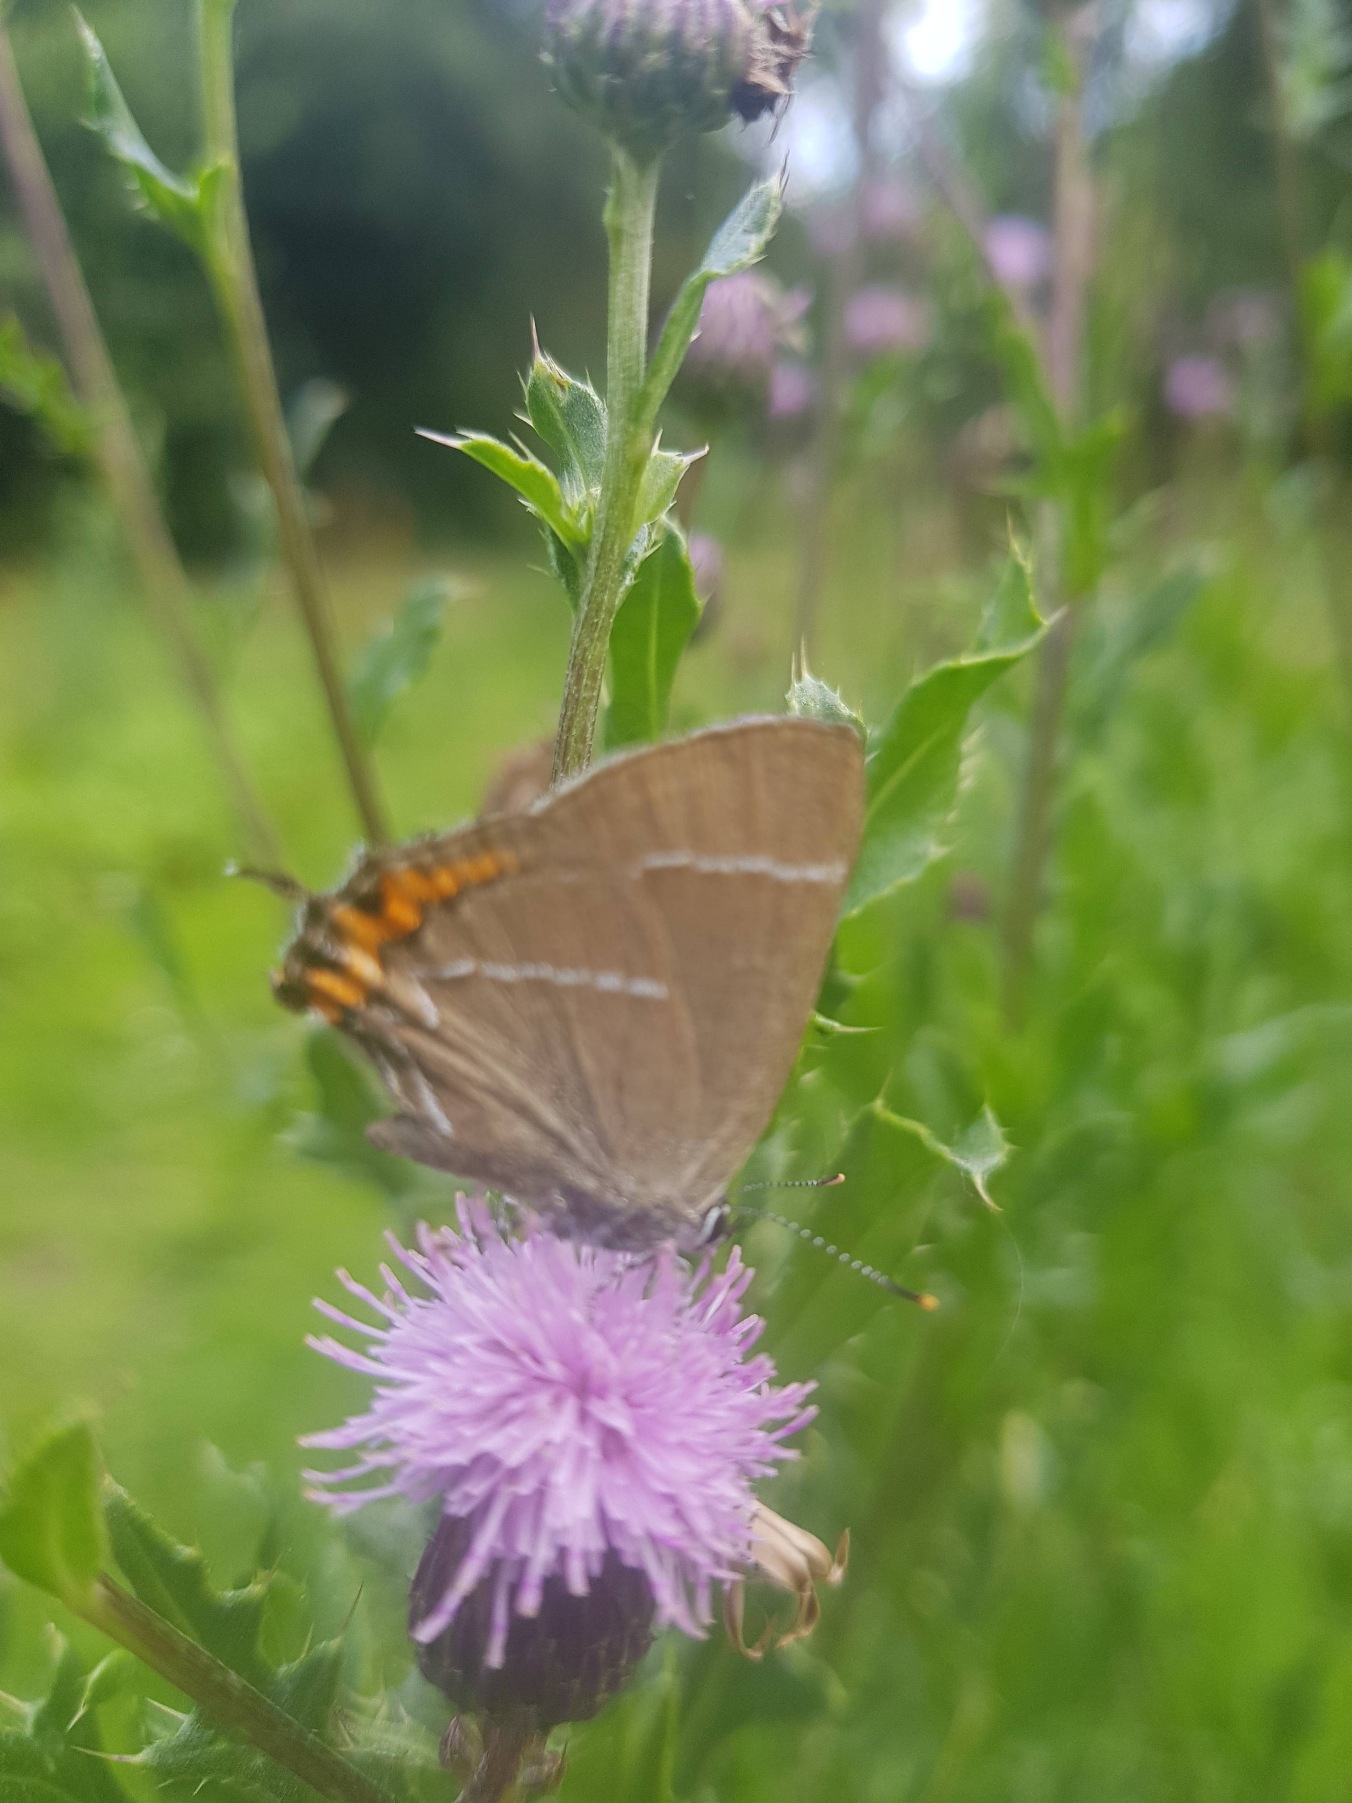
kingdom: Animalia
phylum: Arthropoda
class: Insecta
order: Lepidoptera
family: Lycaenidae
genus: Satyrium
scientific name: Satyrium w-album
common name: Det hvide W
